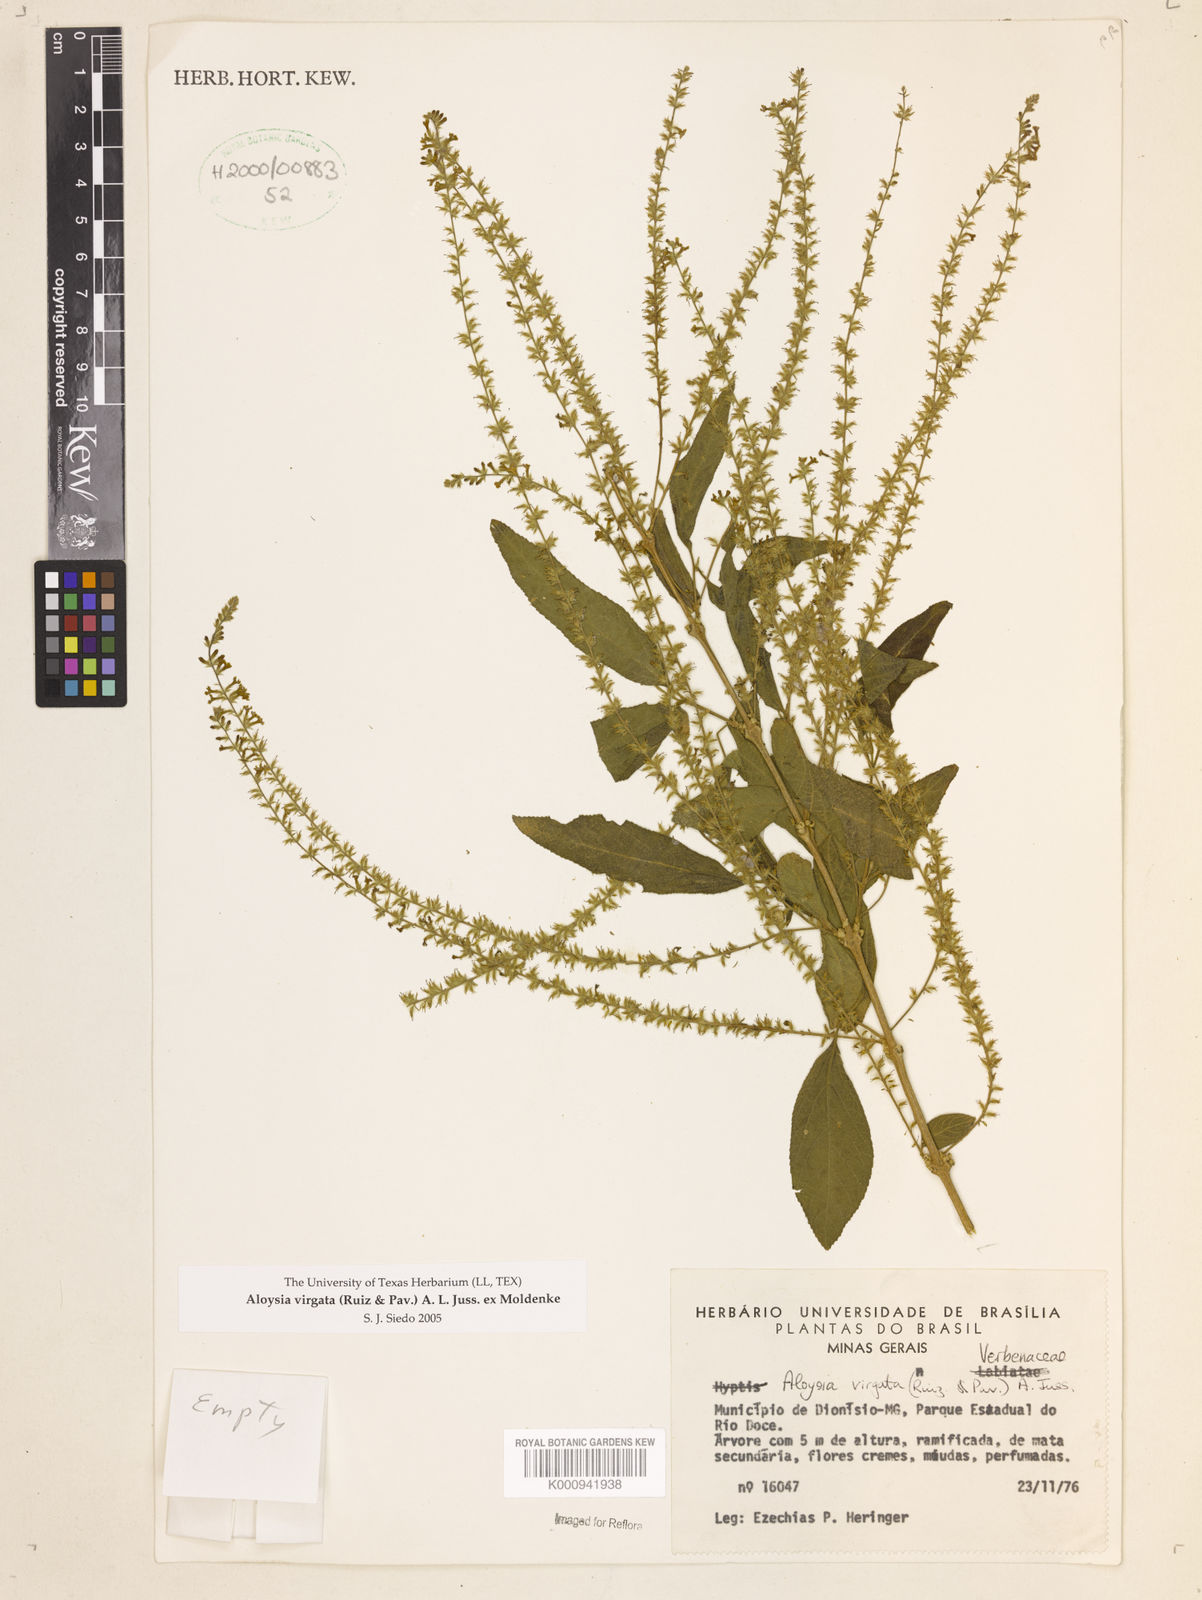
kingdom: Plantae
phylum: Tracheophyta
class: Magnoliopsida
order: Lamiales
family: Verbenaceae
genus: Aloysia
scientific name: Aloysia
